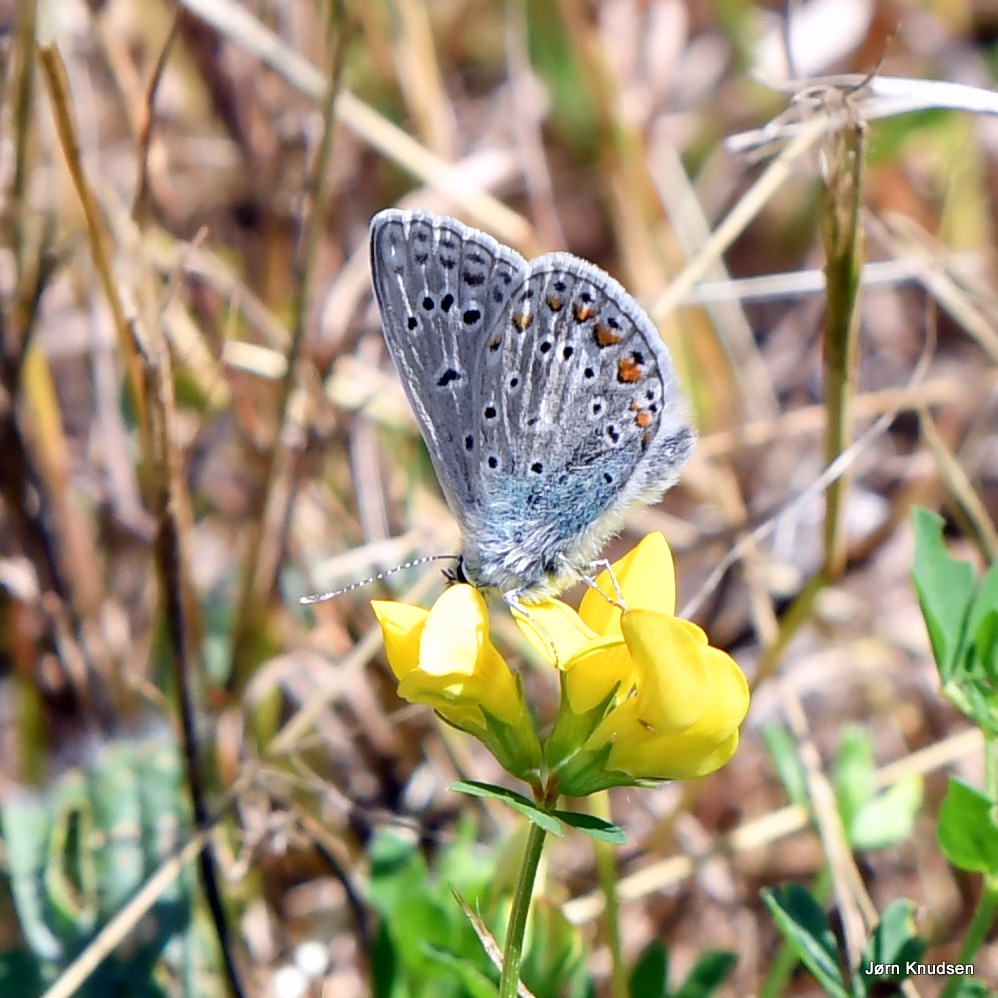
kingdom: Animalia
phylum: Arthropoda
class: Insecta
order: Lepidoptera
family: Lycaenidae
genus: Polyommatus
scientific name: Polyommatus icarus
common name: Almindelig blåfugl
